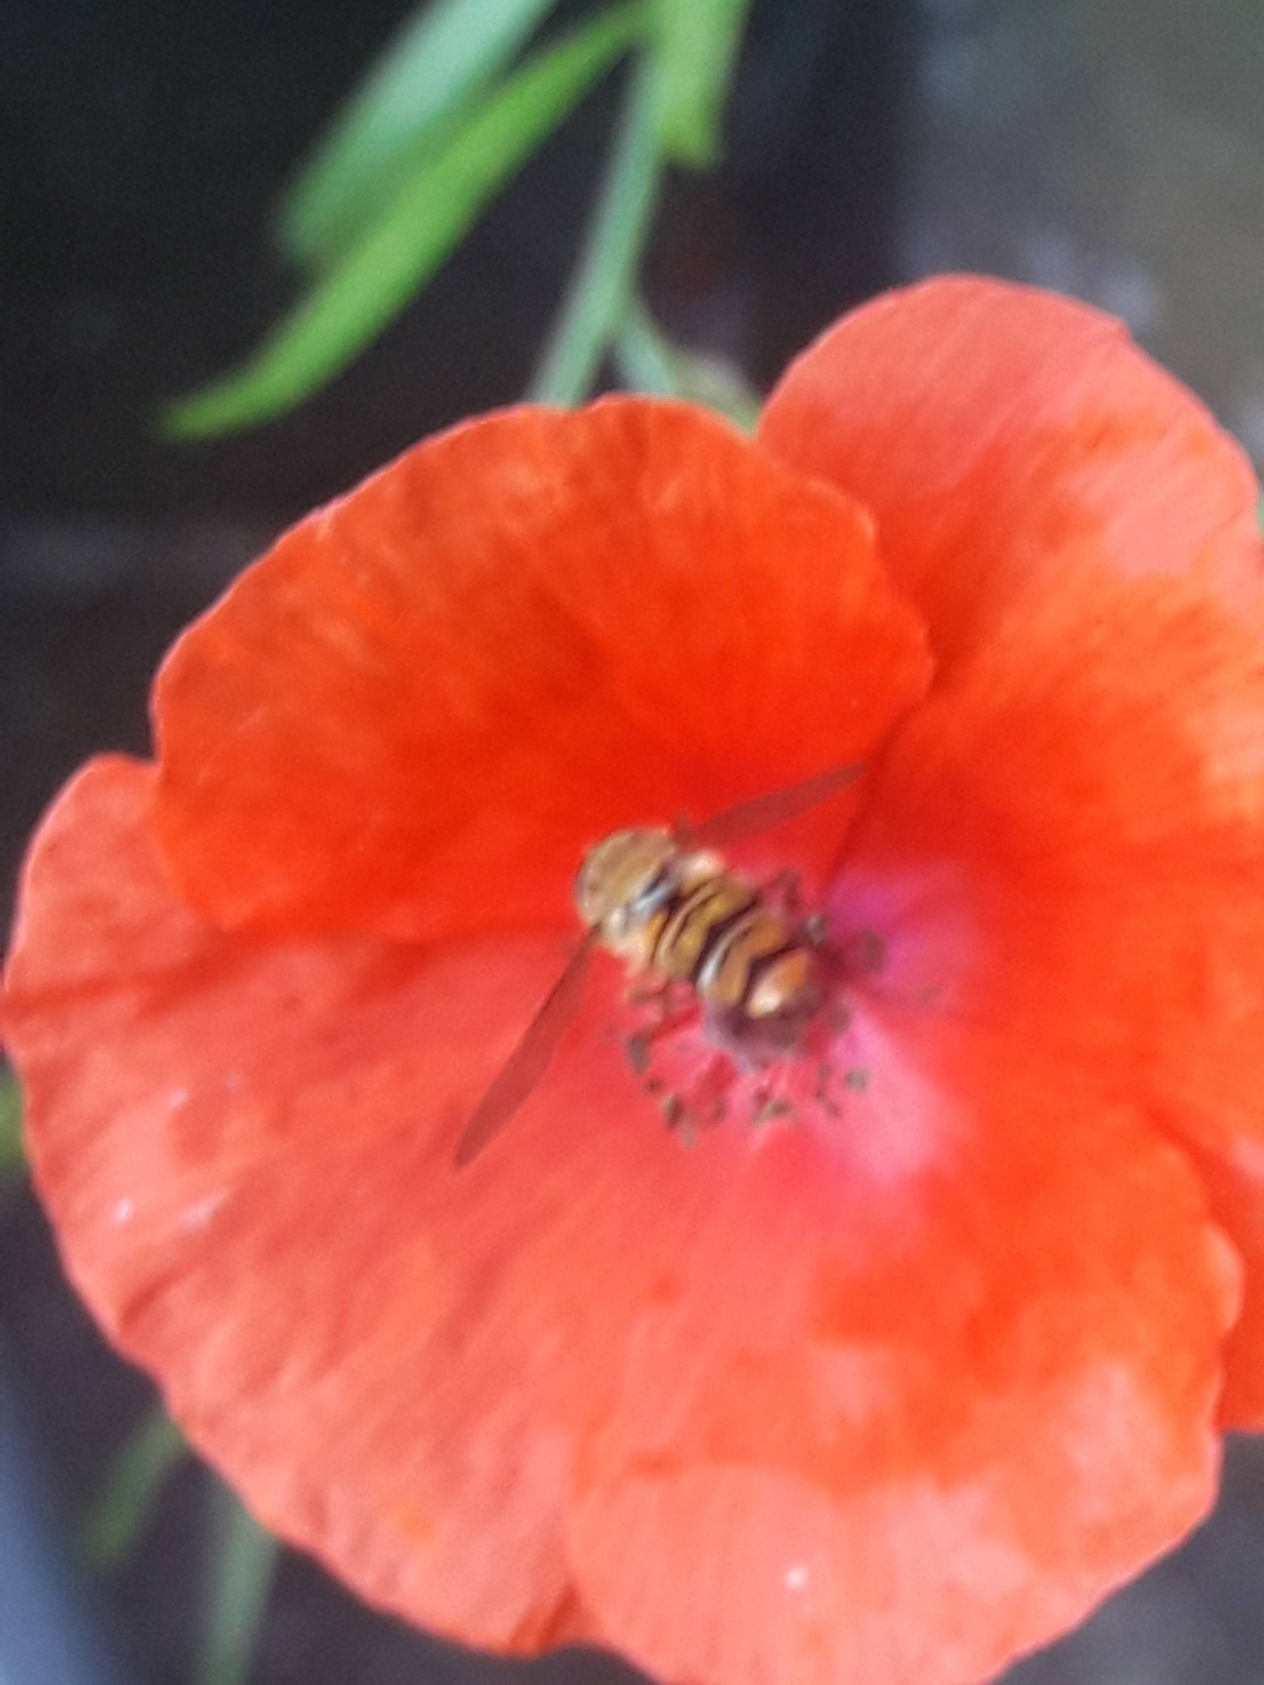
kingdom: Animalia
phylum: Arthropoda
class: Insecta
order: Diptera
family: Syrphidae
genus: Episyrphus
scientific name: Episyrphus balteatus
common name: Dobbeltbåndet svirreflue
